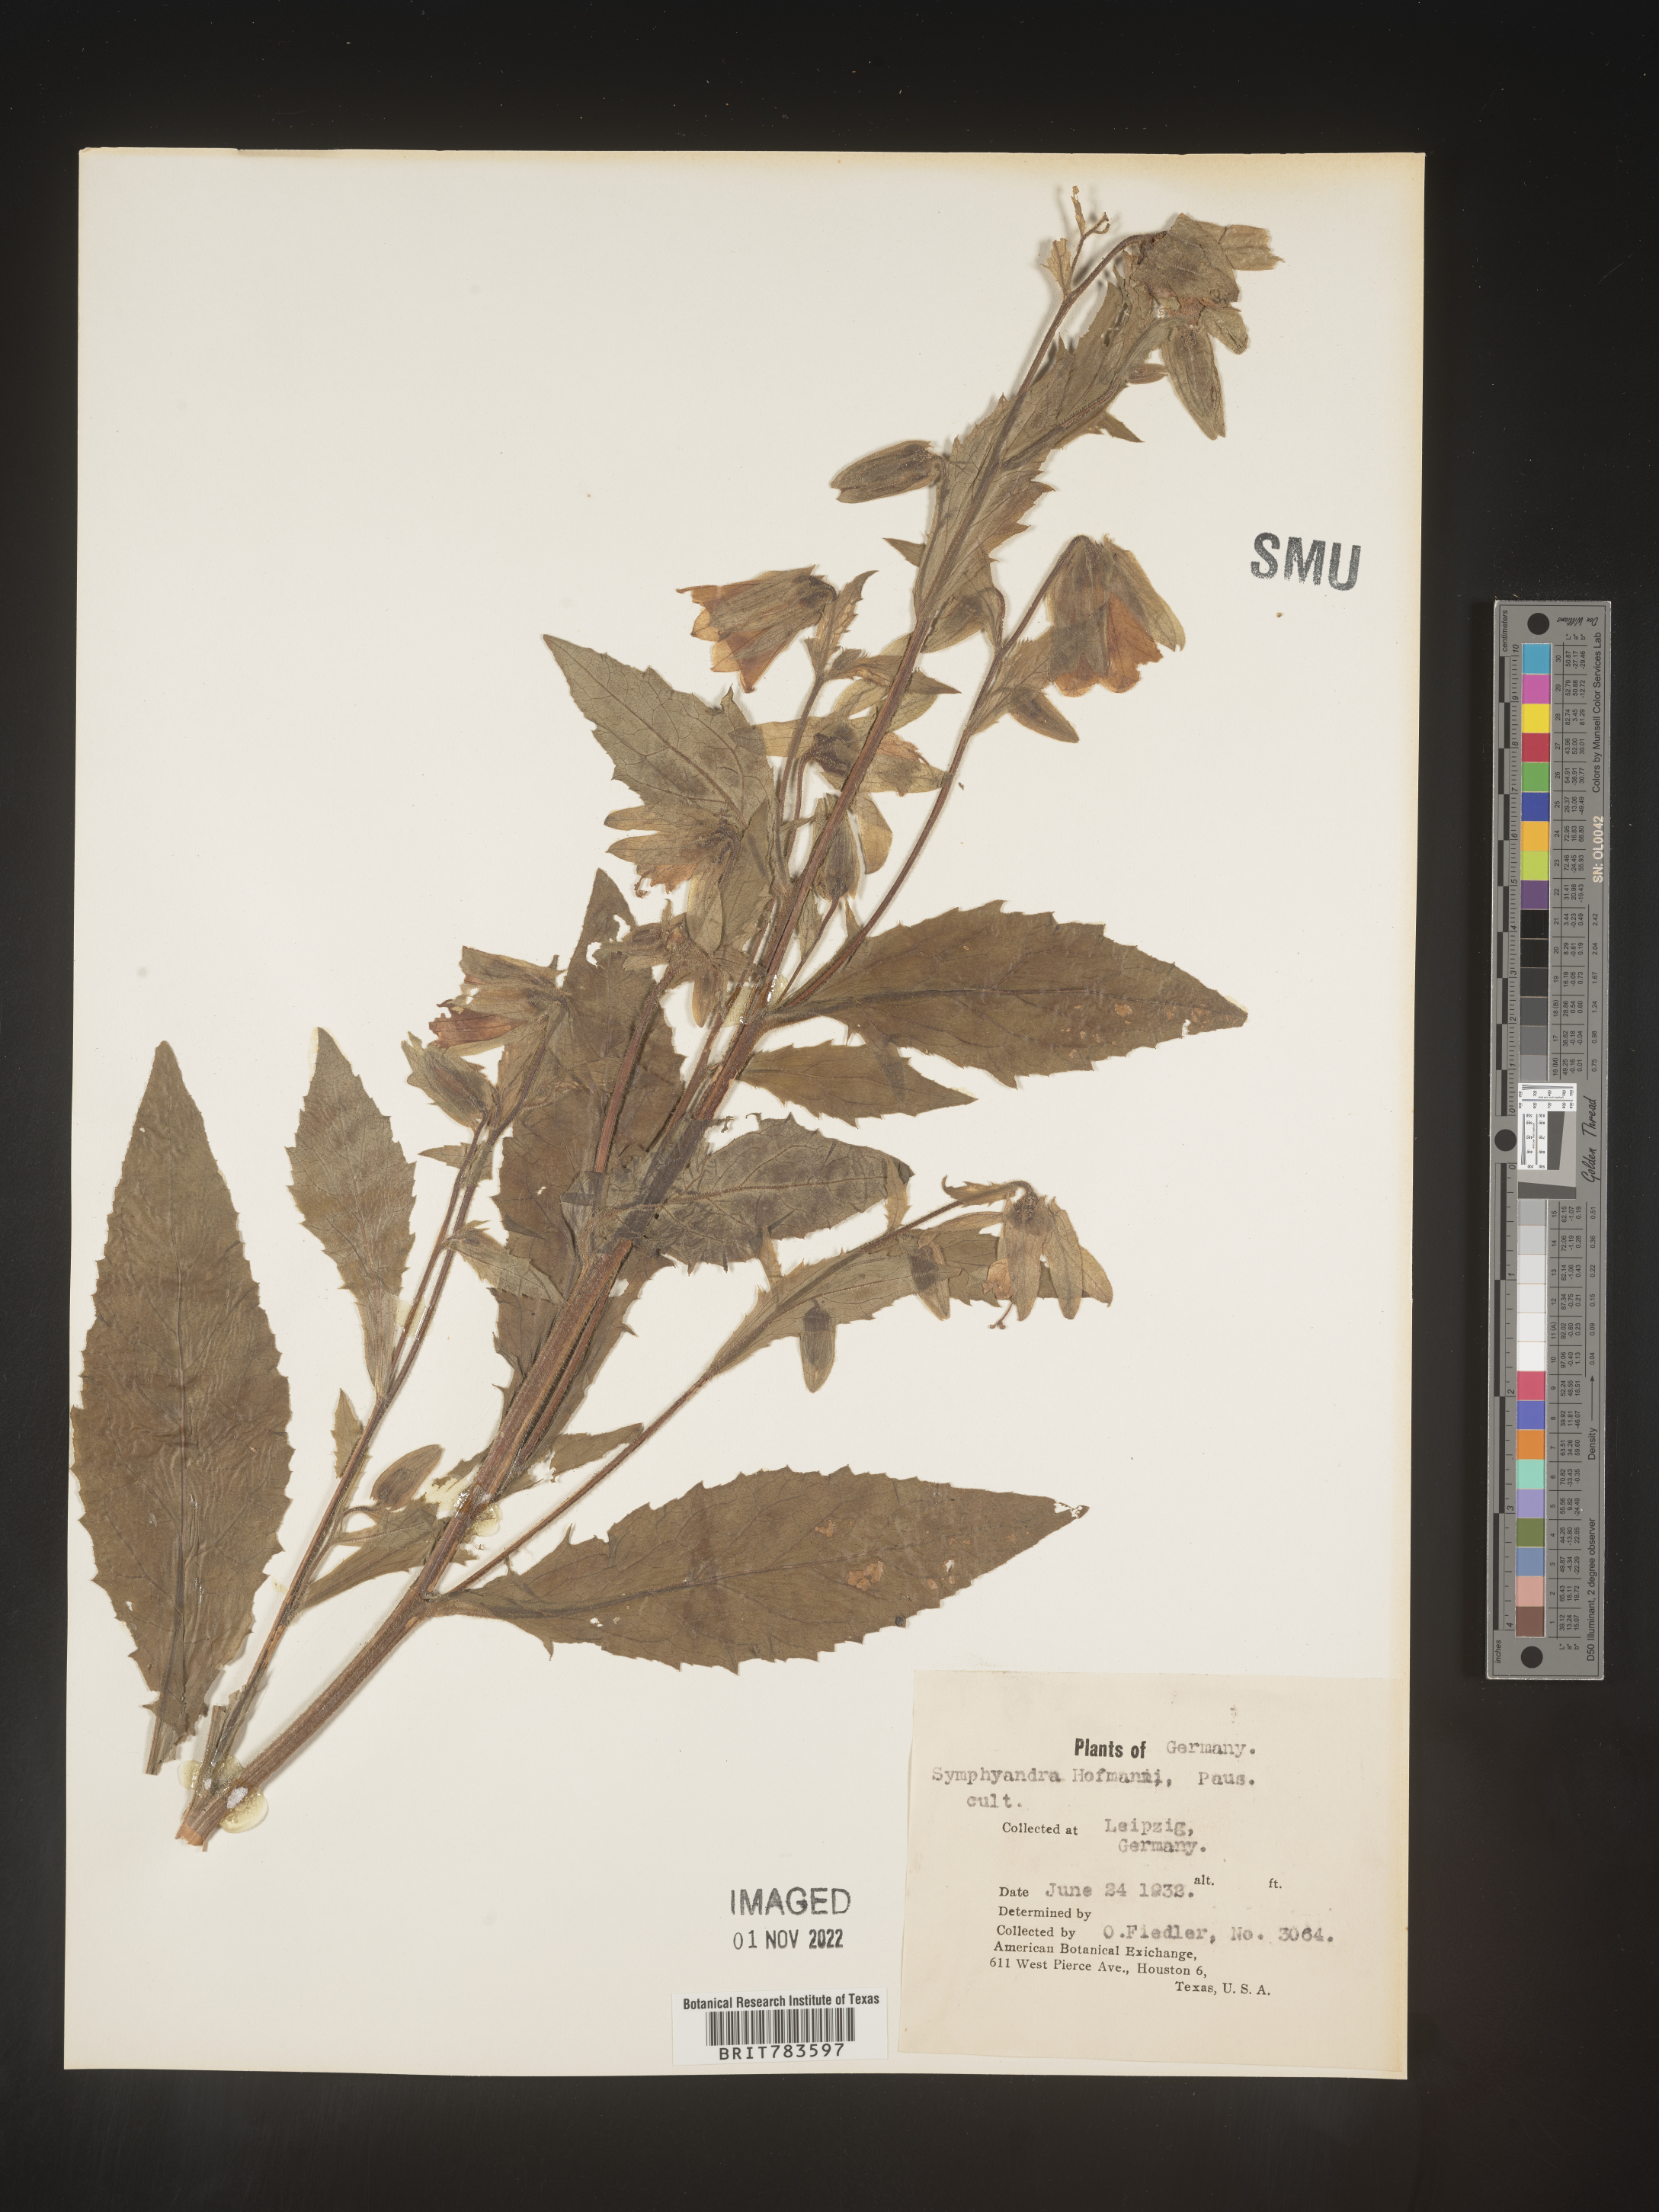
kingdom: Plantae
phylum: Tracheophyta
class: Magnoliopsida
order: Asterales
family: Campanulaceae
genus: Campanula
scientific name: Campanula
